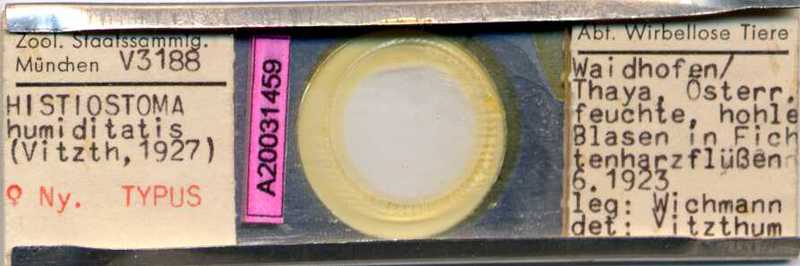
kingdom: Animalia
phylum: Arthropoda
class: Arachnida
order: Sarcoptiformes
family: Histiostomatidae
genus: Histiostoma
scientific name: Histiostoma humiditatis
